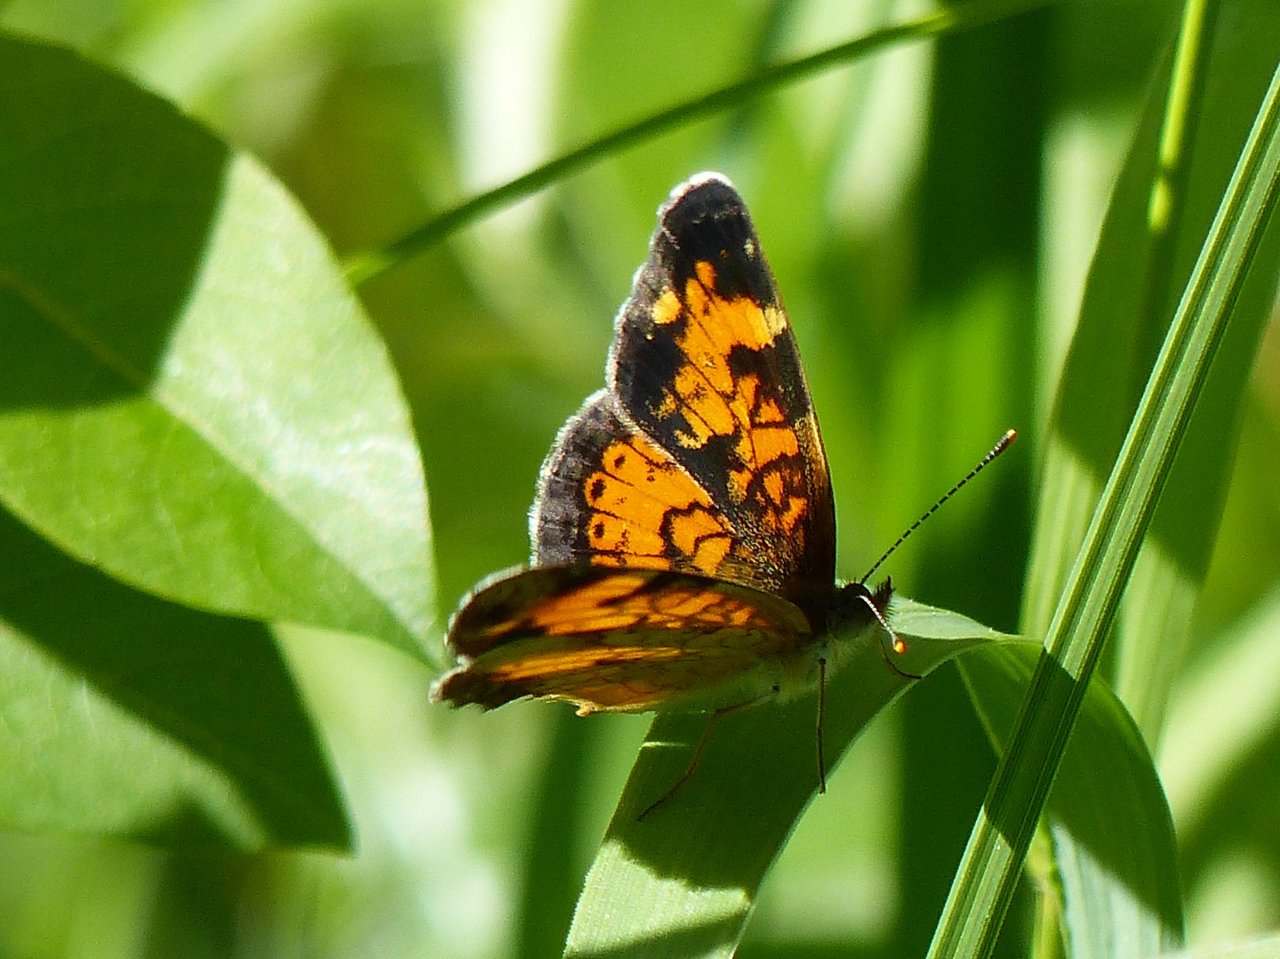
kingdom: Animalia
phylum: Arthropoda
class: Insecta
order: Lepidoptera
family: Nymphalidae
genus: Phyciodes
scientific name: Phyciodes tharos
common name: Northern Crescent
